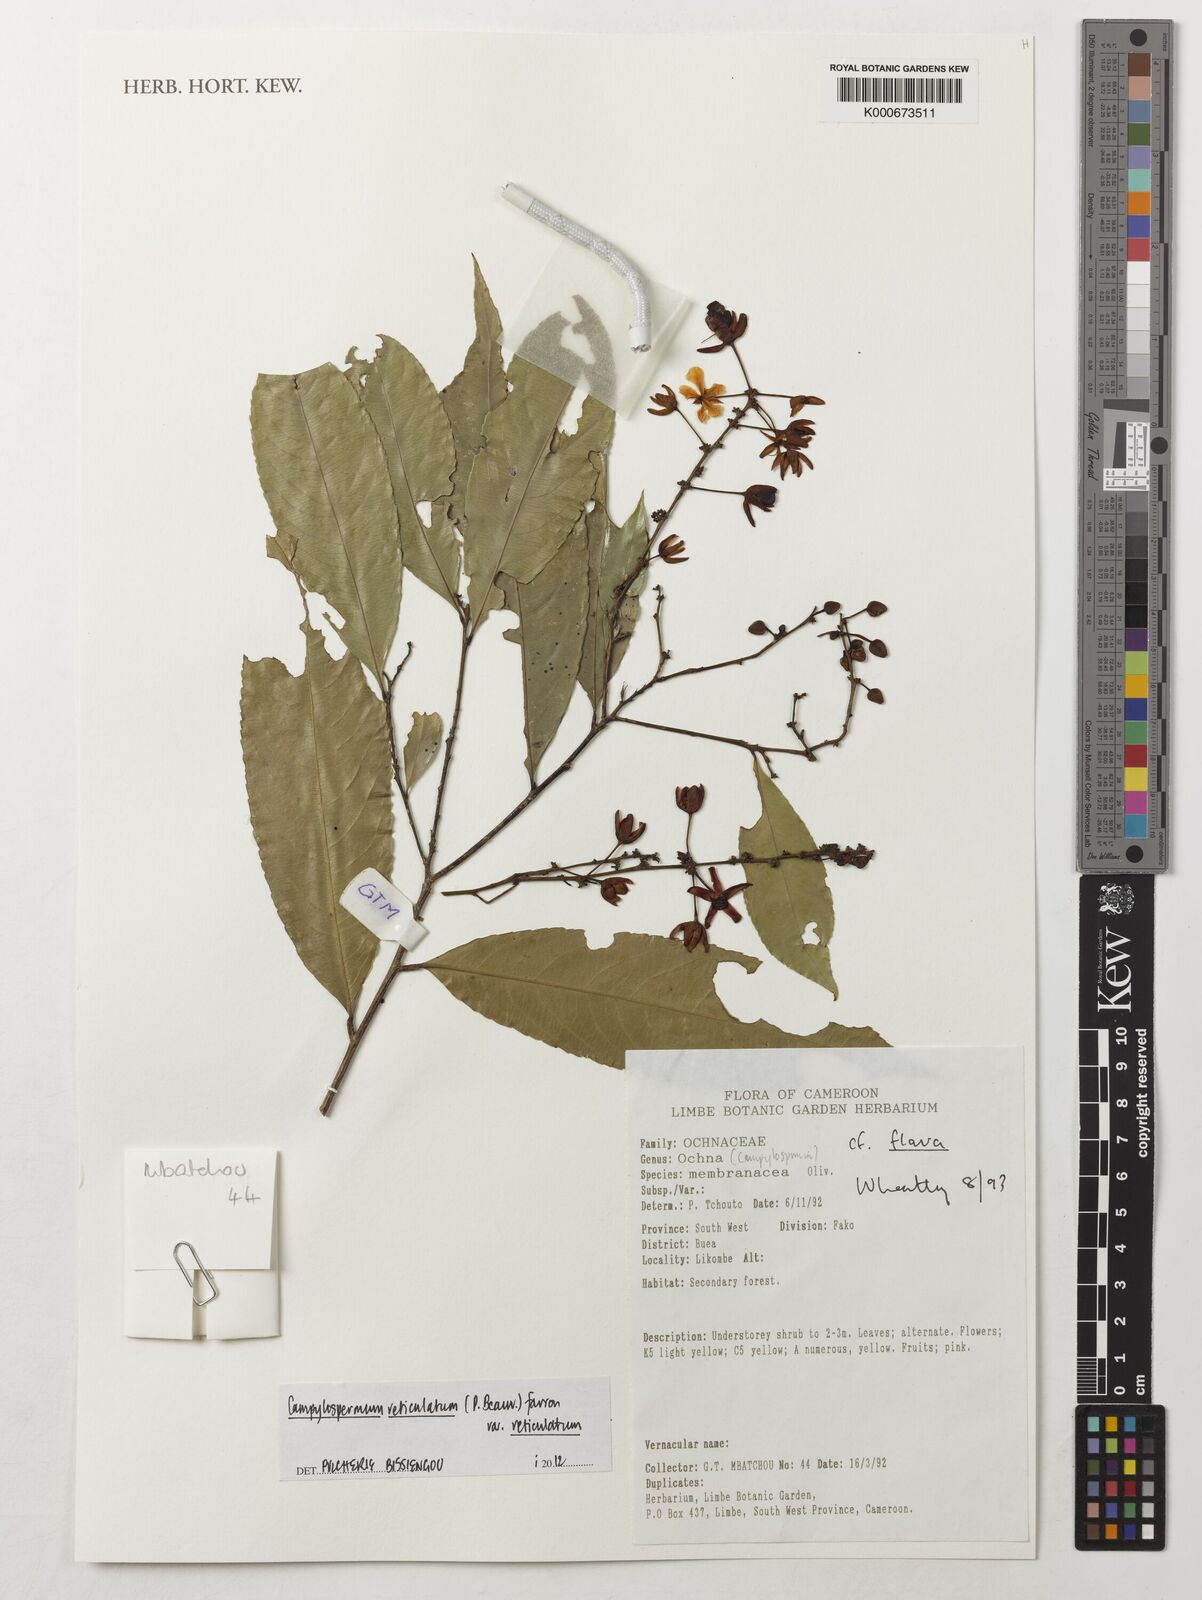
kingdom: Plantae
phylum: Tracheophyta
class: Magnoliopsida
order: Malpighiales
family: Ochnaceae
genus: Campylospermum
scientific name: Campylospermum reticulatum
